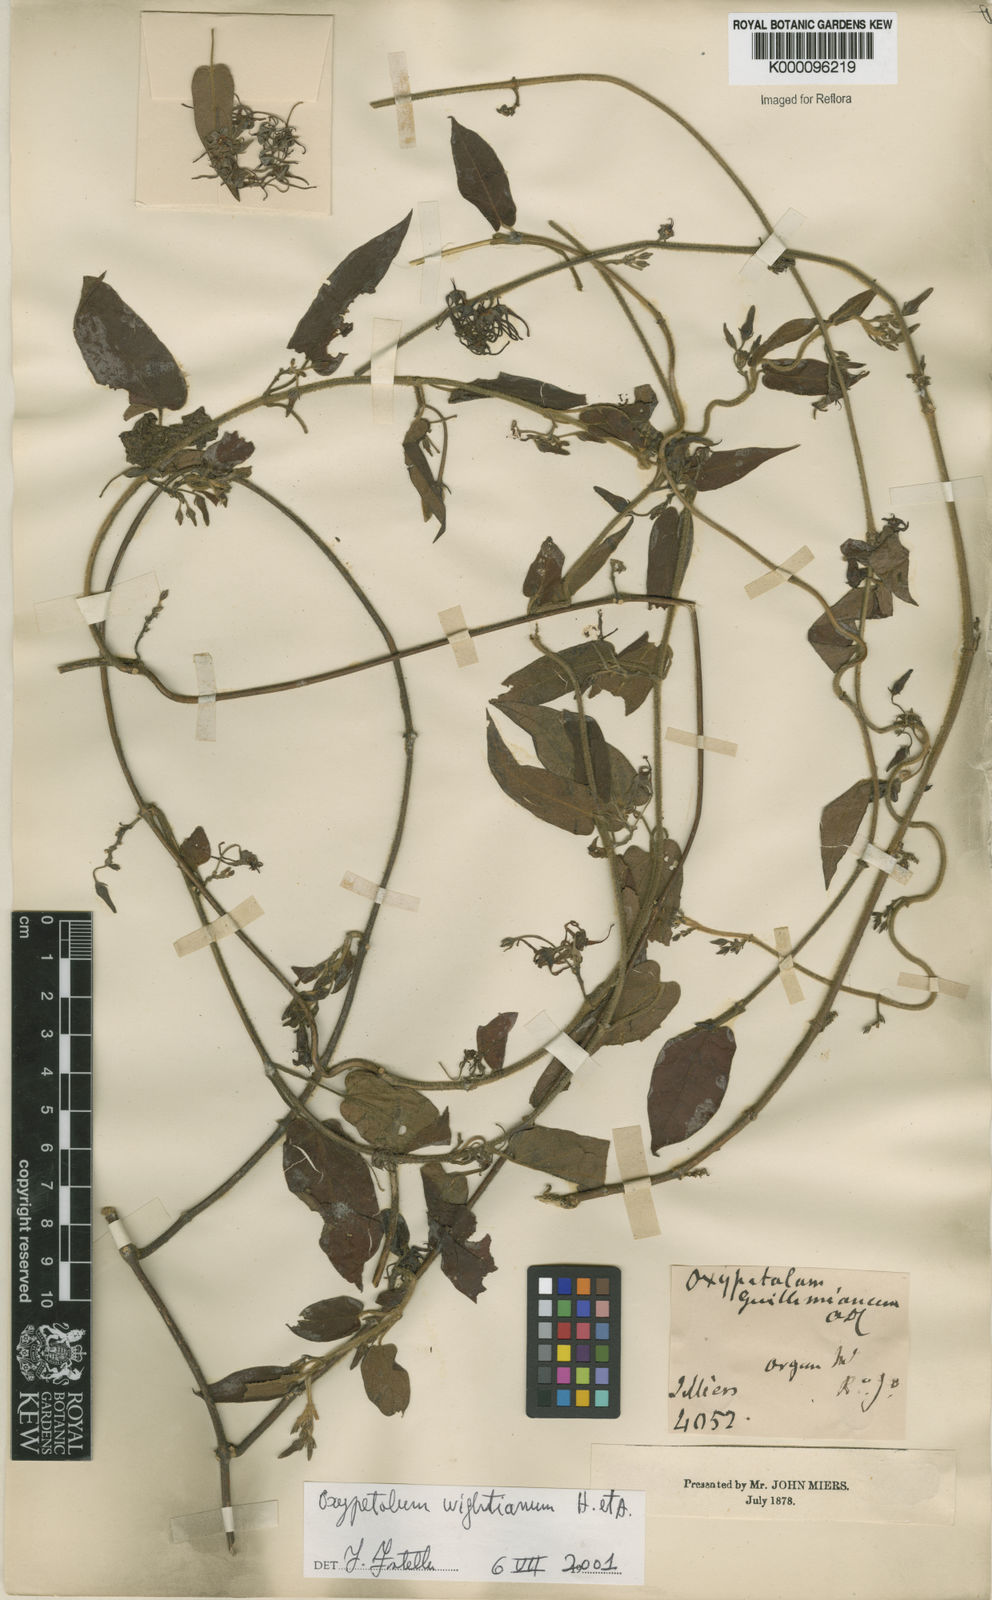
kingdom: Plantae
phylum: Tracheophyta
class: Magnoliopsida
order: Gentianales
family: Apocynaceae
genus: Oxypetalum
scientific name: Oxypetalum wightianum
